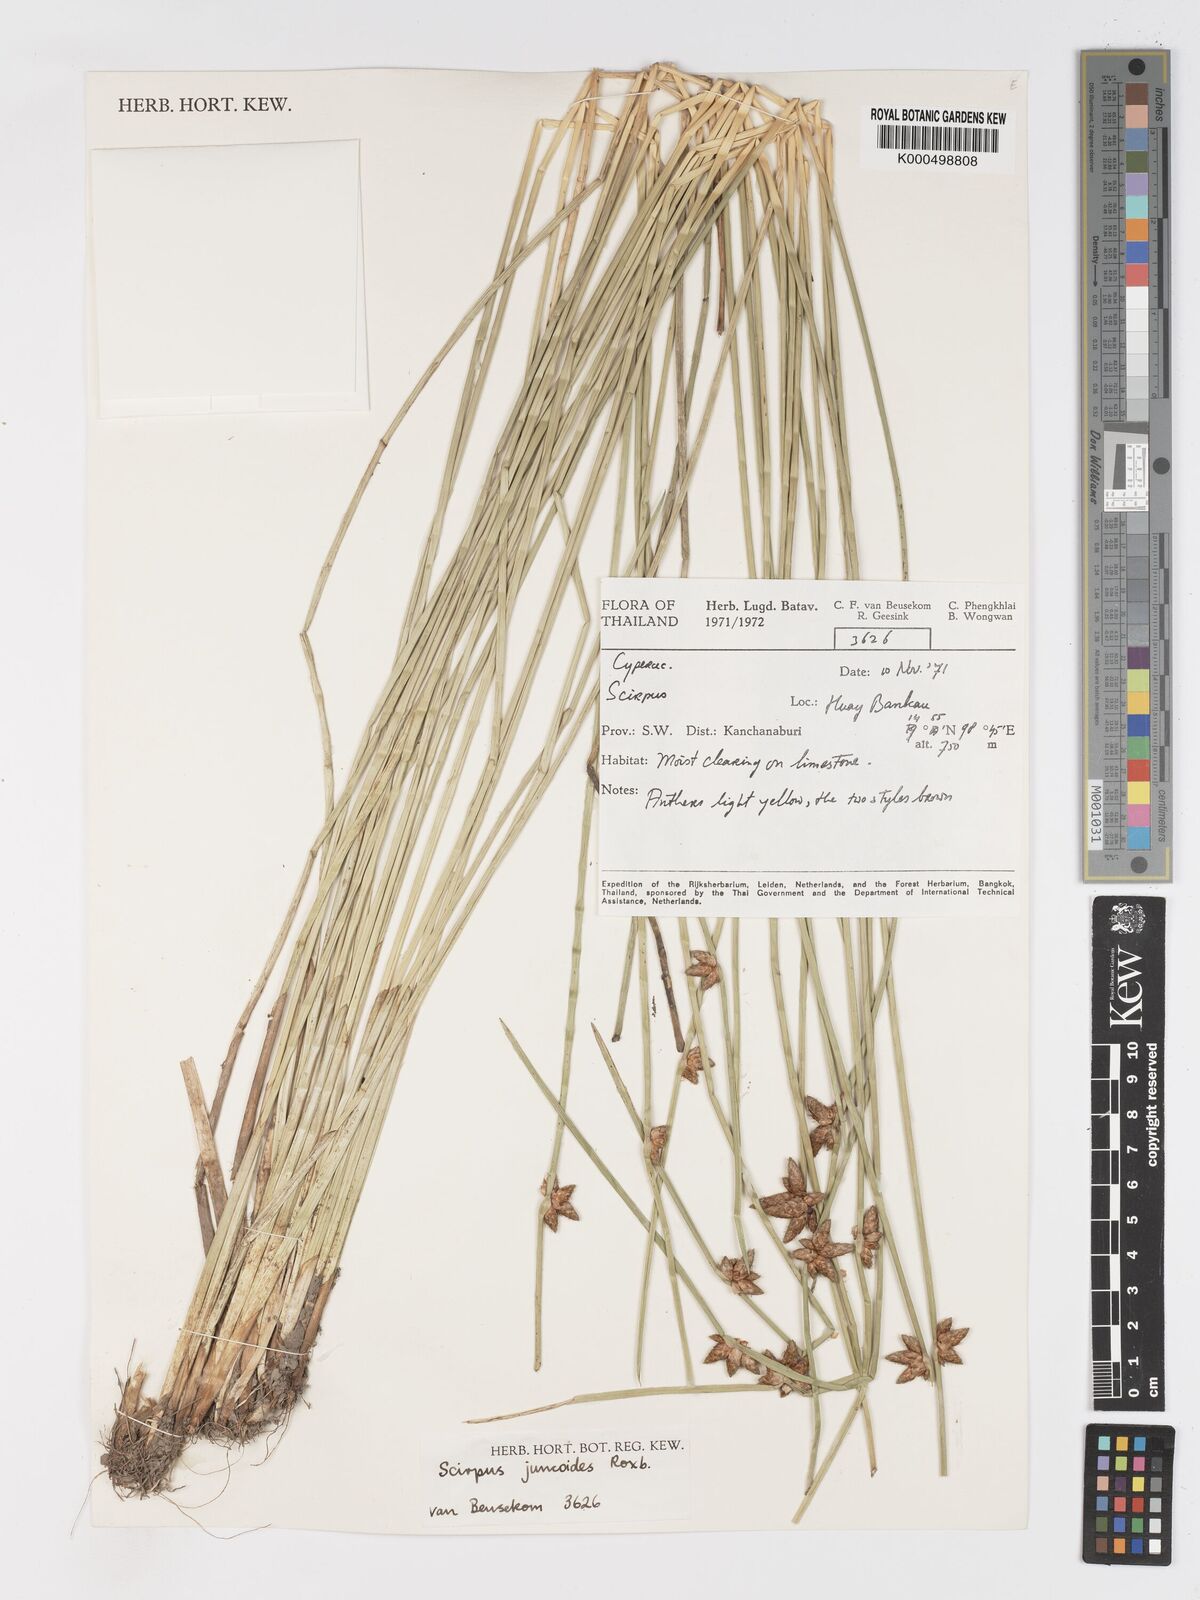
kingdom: Plantae
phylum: Tracheophyta
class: Liliopsida
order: Poales
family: Cyperaceae
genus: Schoenoplectiella
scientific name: Schoenoplectiella juncoides
